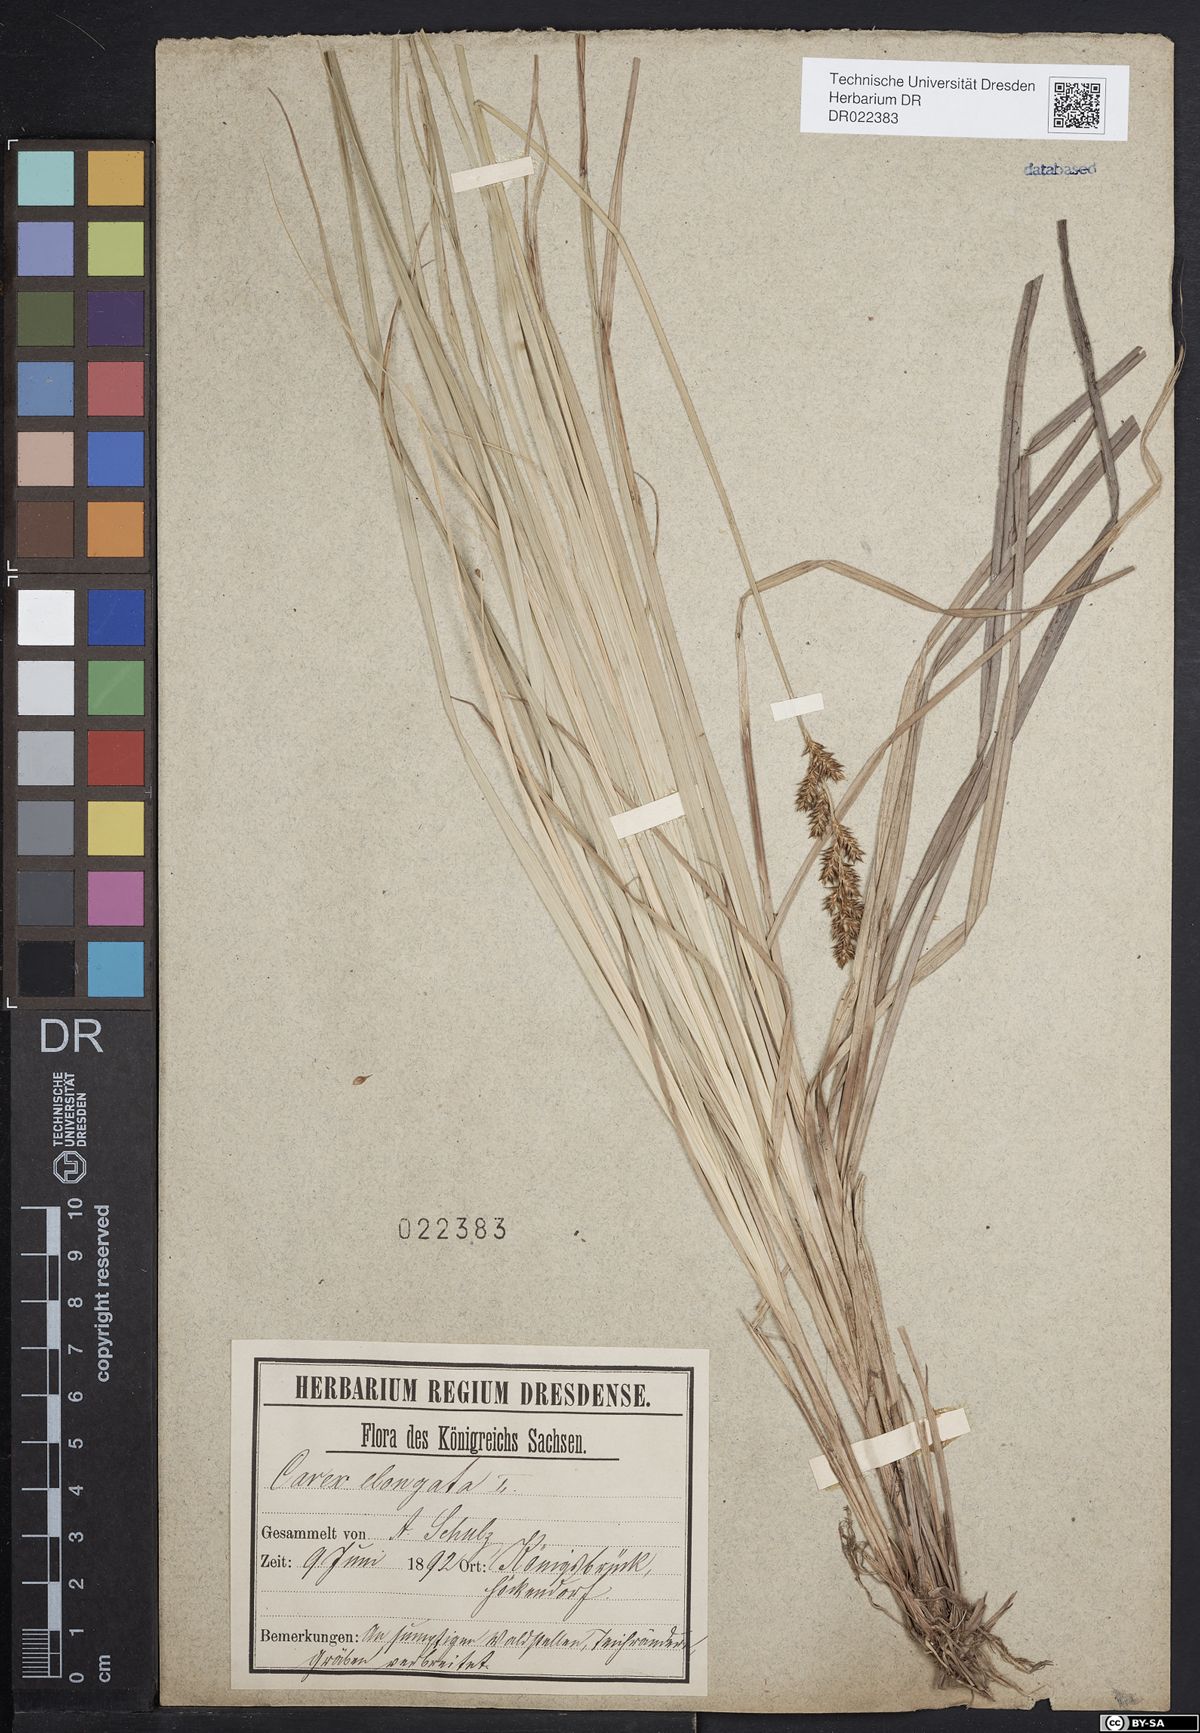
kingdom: Plantae
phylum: Tracheophyta
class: Liliopsida
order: Poales
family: Cyperaceae
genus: Carex
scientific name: Carex elongata
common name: Elongated sedge
